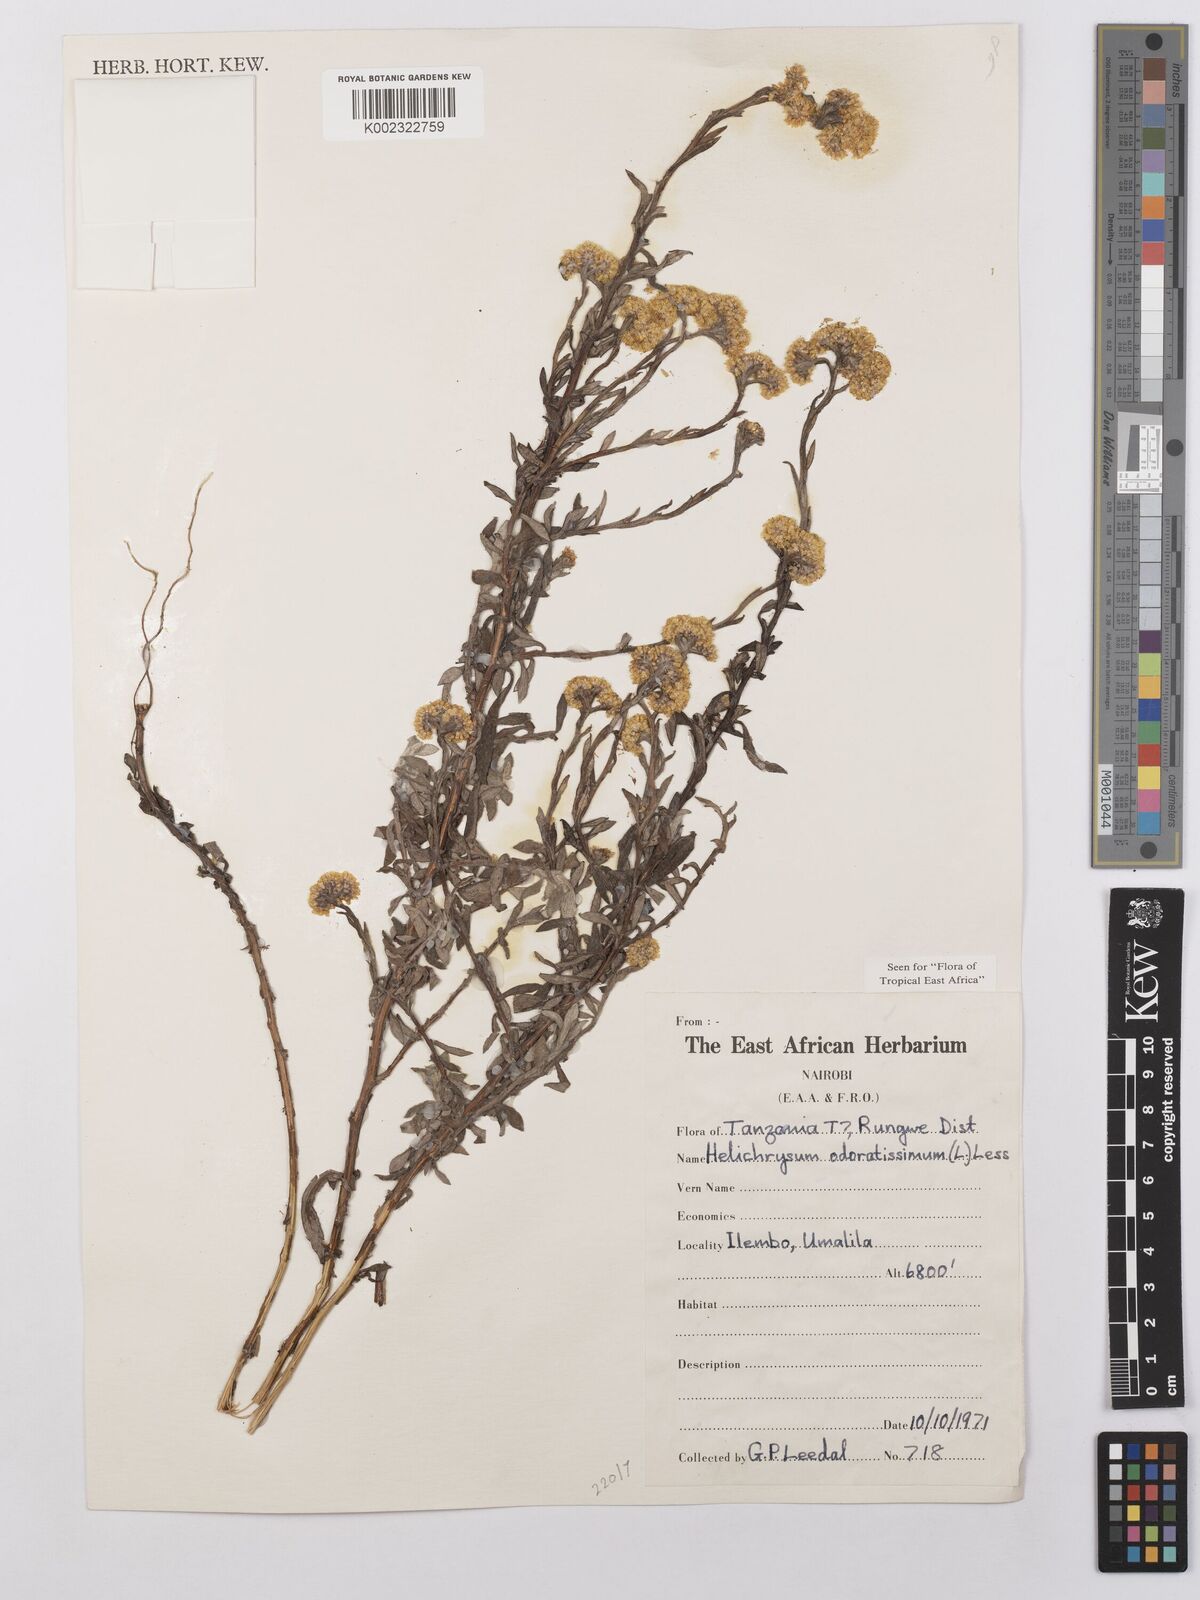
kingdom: Plantae
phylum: Tracheophyta
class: Magnoliopsida
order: Asterales
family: Asteraceae
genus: Helichrysum
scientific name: Helichrysum odoratissimum
